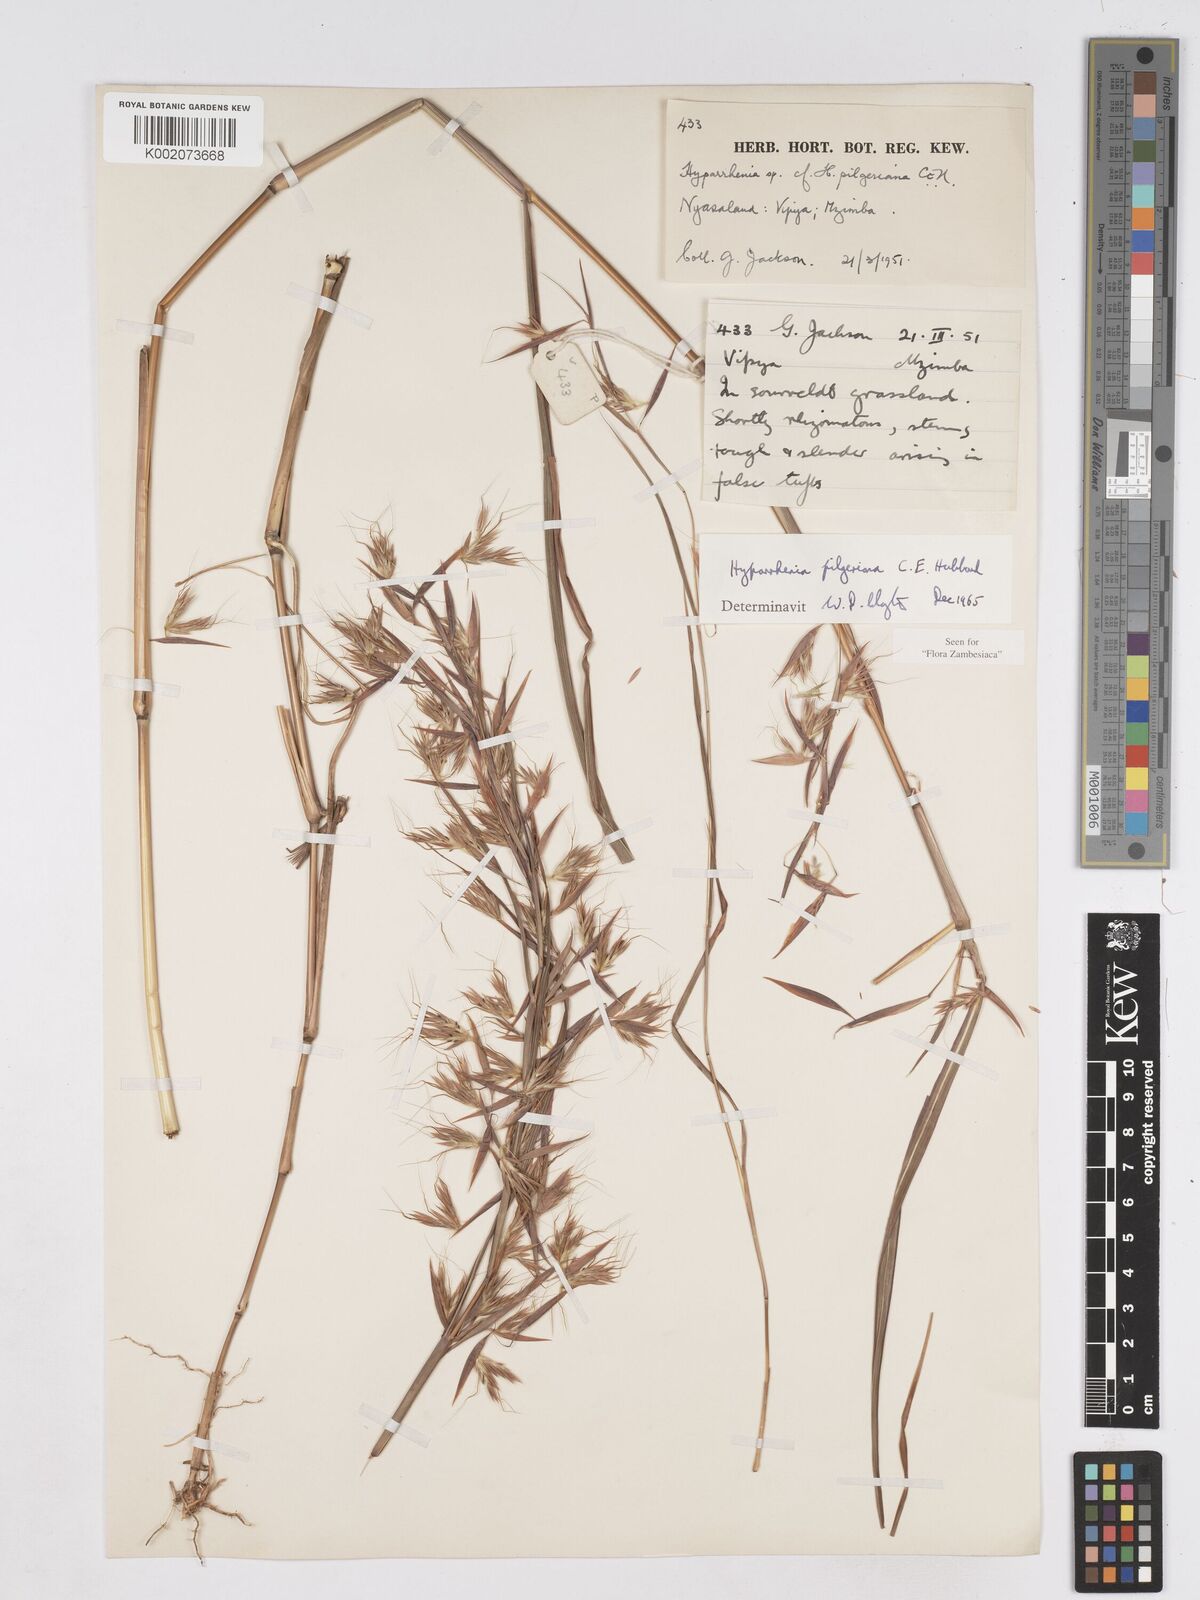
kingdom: Plantae
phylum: Tracheophyta
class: Liliopsida
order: Poales
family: Poaceae
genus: Hyparrhenia
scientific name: Hyparrhenia pilgeriana
